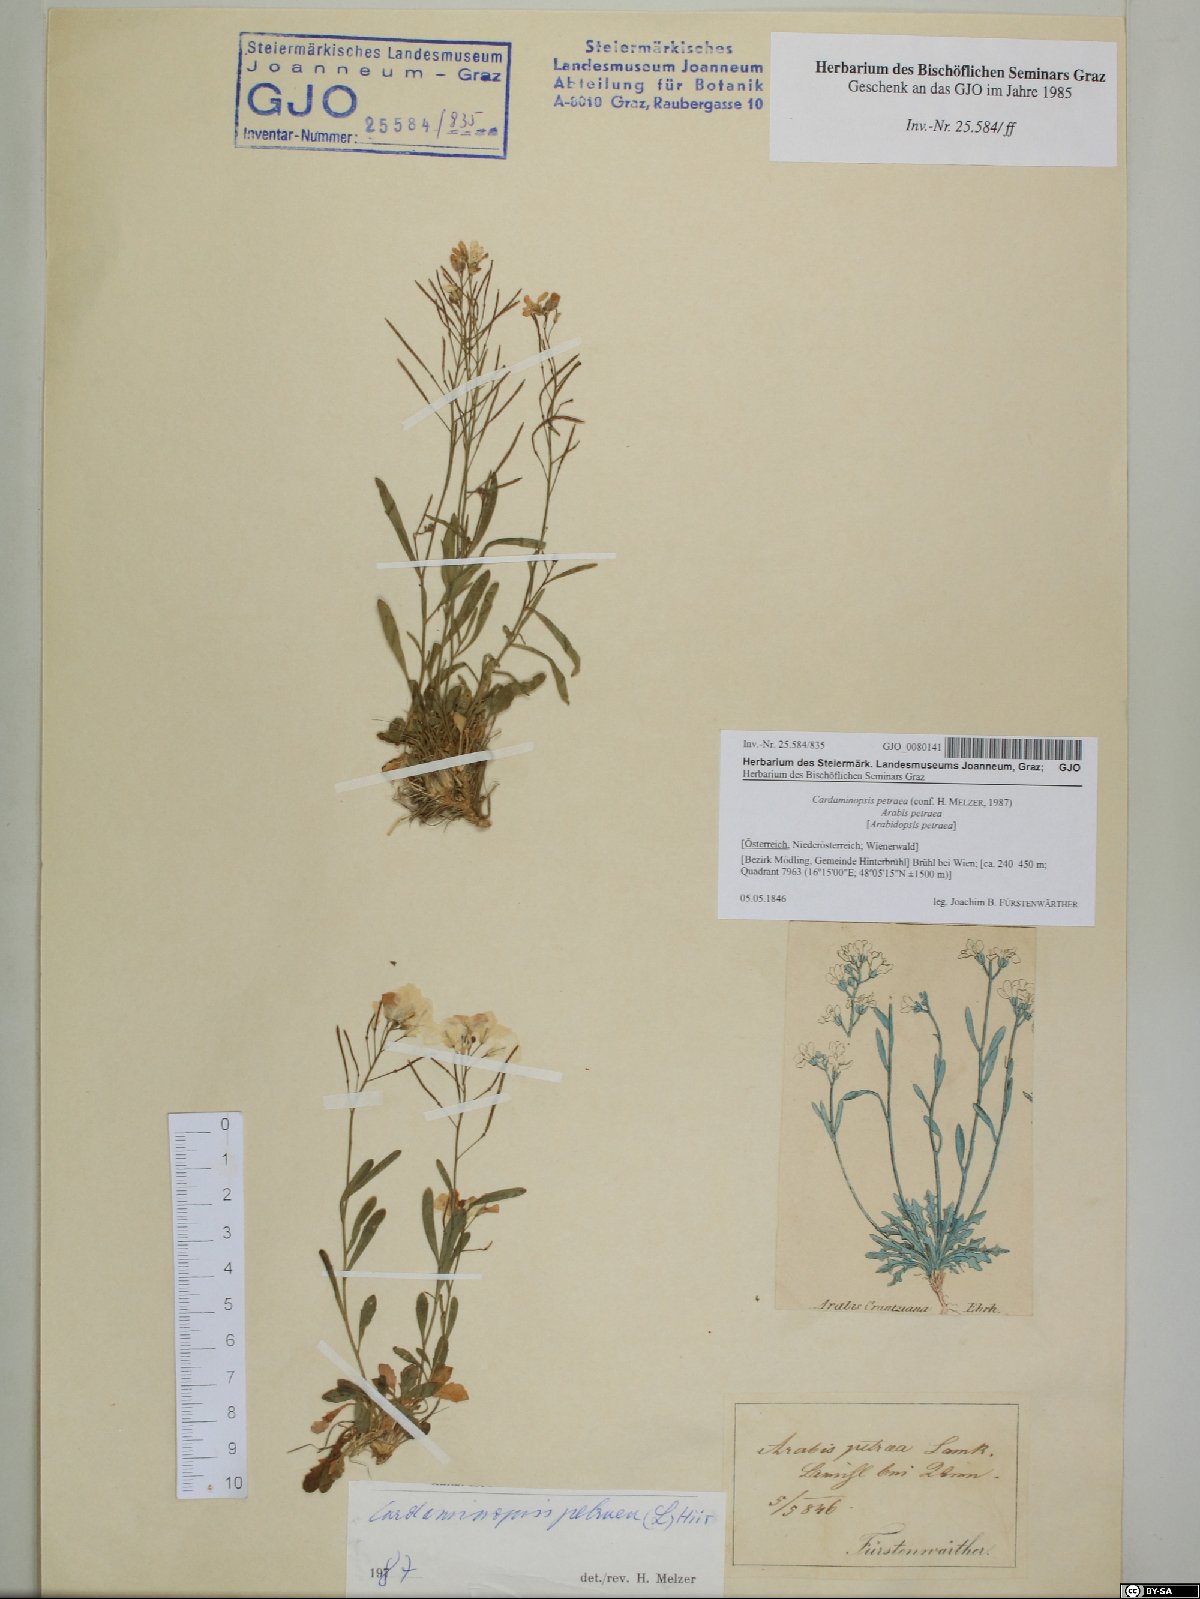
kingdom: Plantae
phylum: Tracheophyta
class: Magnoliopsida
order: Brassicales
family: Brassicaceae
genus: Arabidopsis
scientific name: Arabidopsis lyrata
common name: Lyrate rockcress
